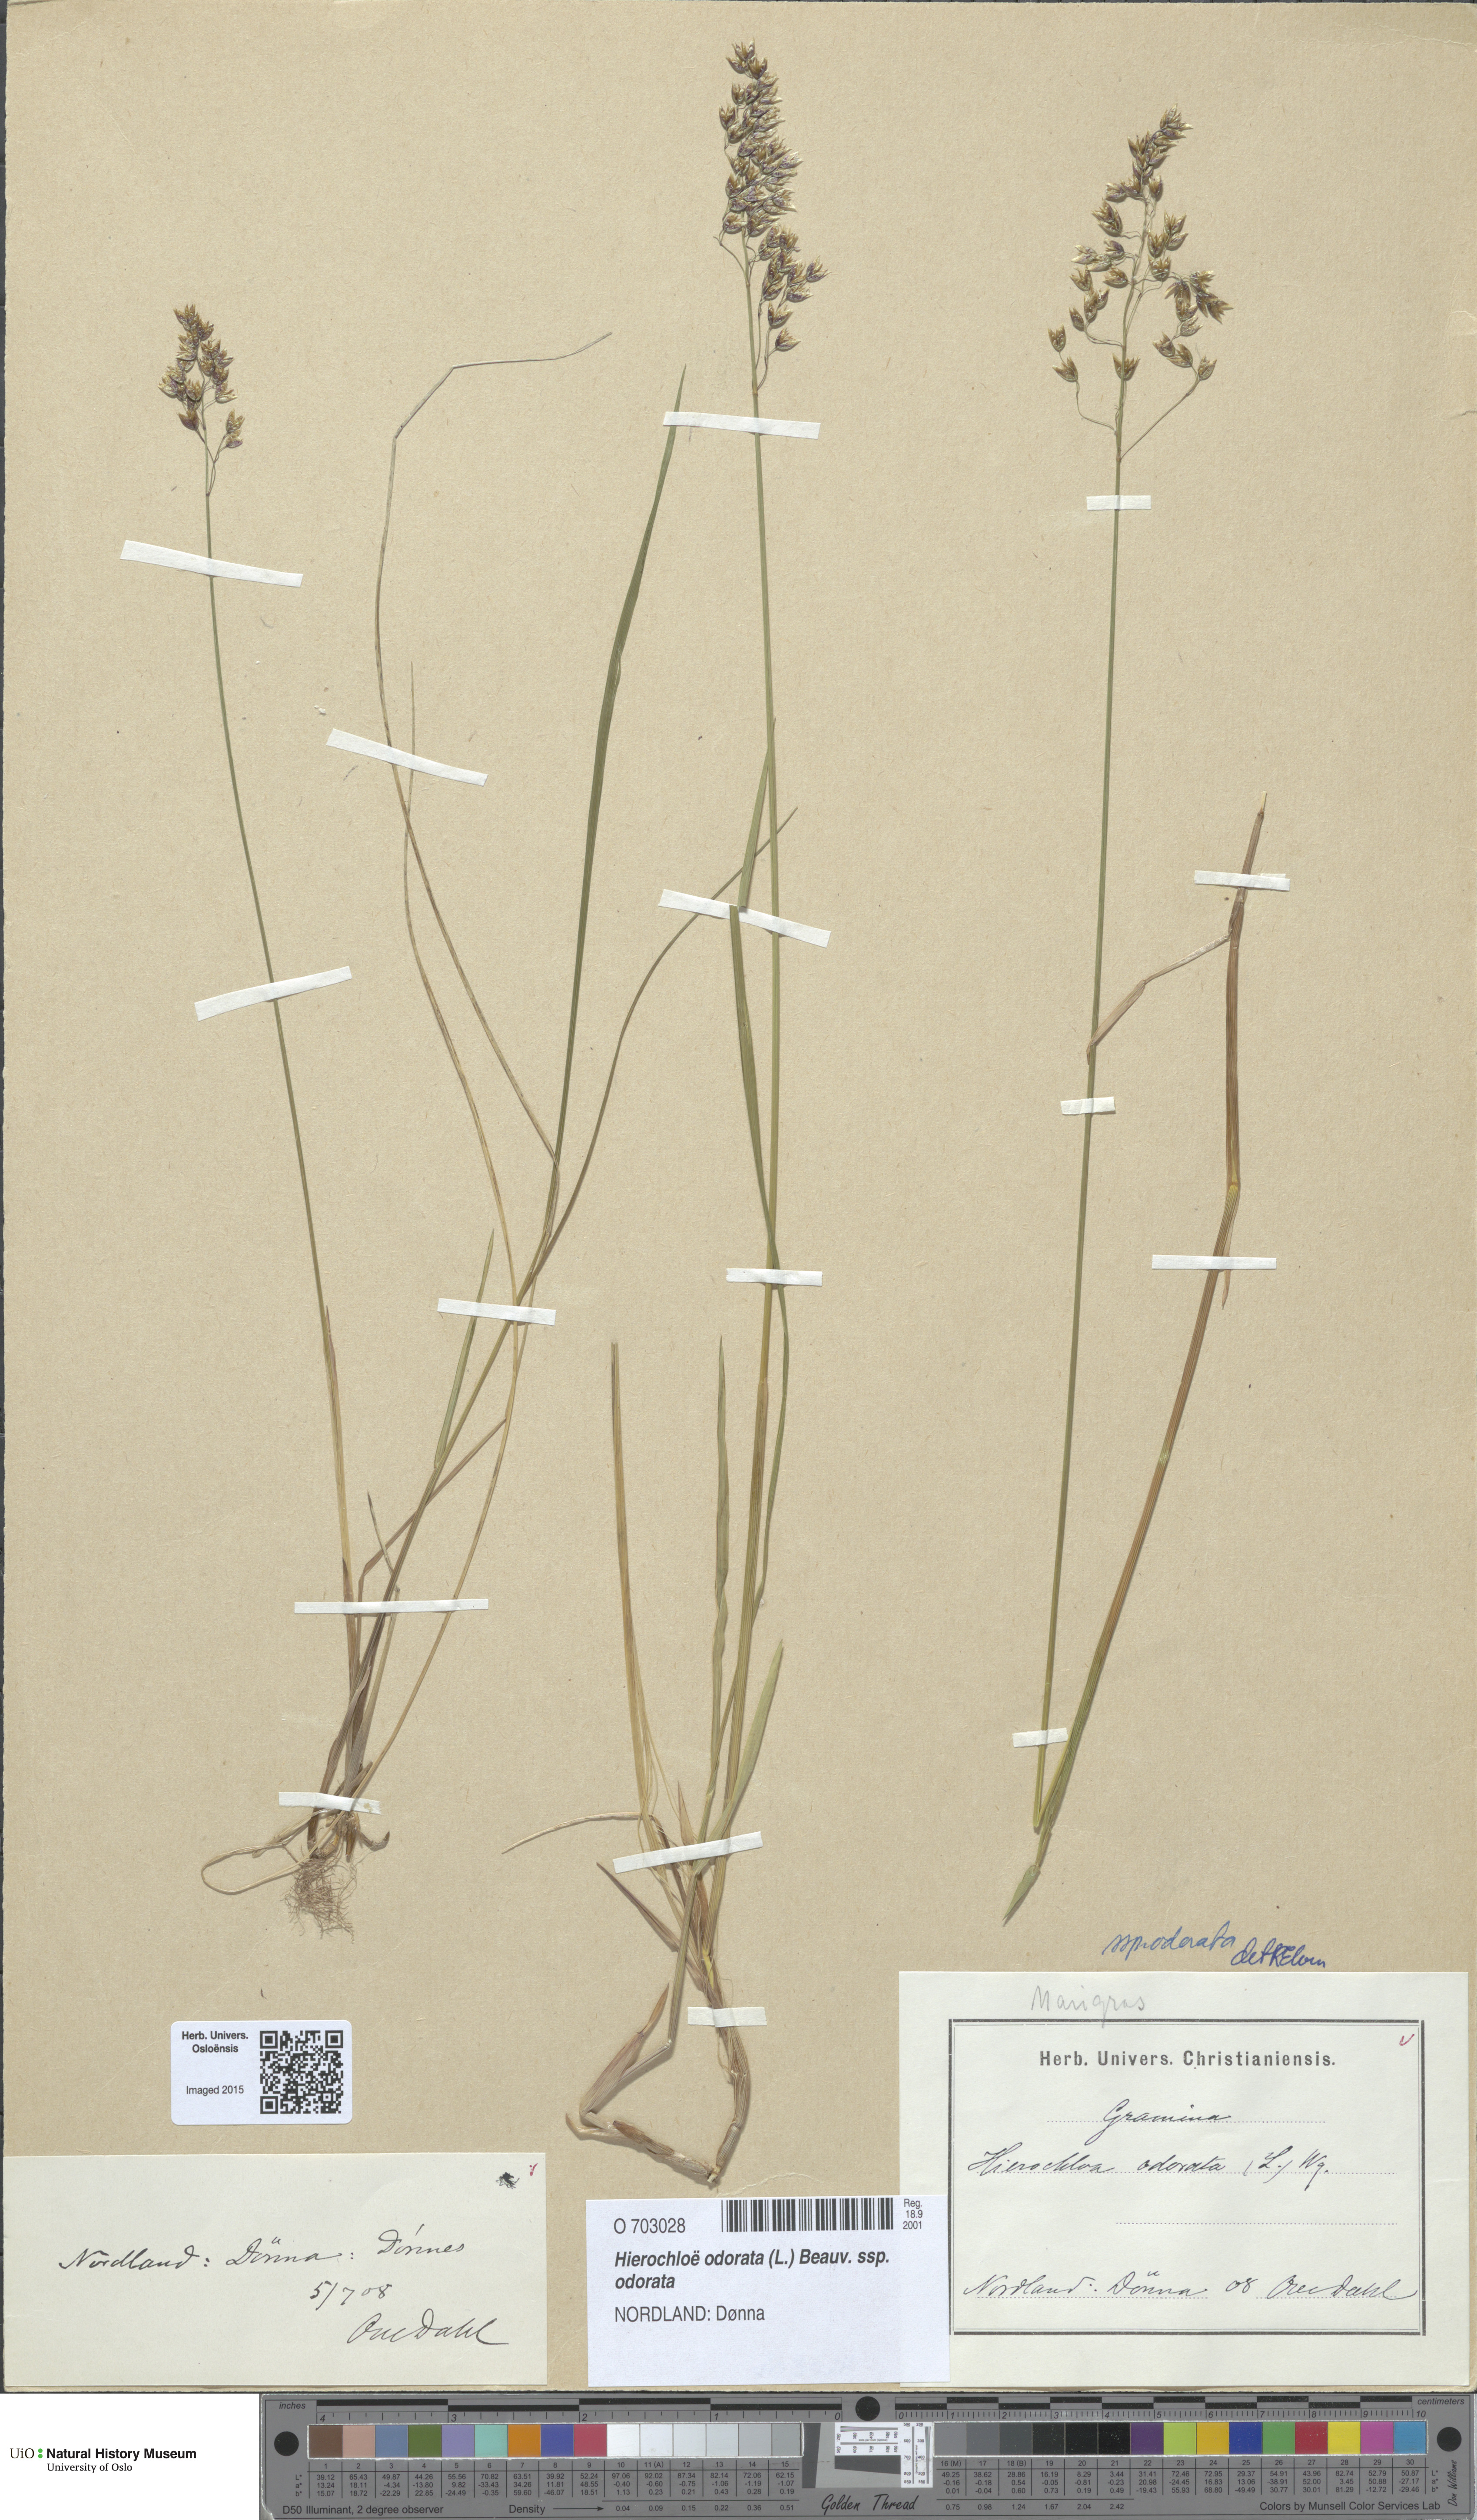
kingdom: Plantae
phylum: Tracheophyta
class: Liliopsida
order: Poales
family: Poaceae
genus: Anthoxanthum
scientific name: Anthoxanthum nitens
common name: Holy grass
